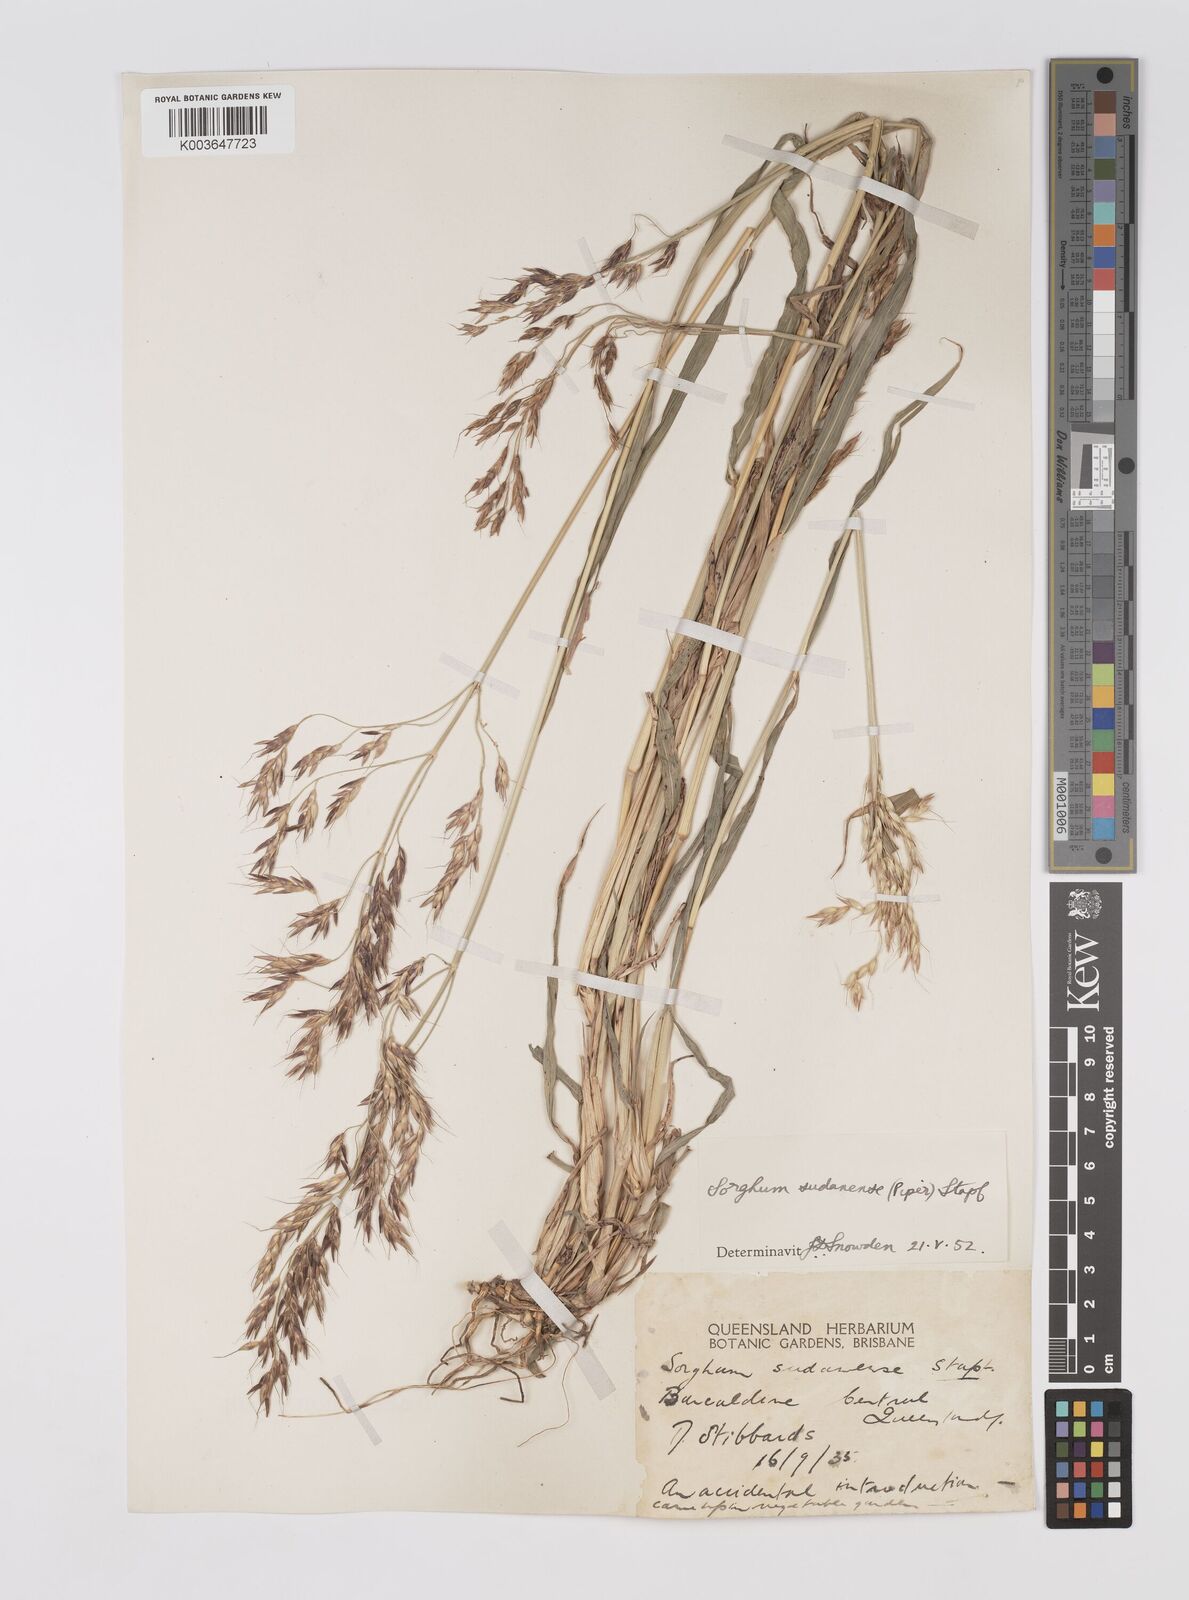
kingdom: Plantae
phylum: Tracheophyta
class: Liliopsida
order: Poales
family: Poaceae
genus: Sorghum
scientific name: Sorghum drummondii
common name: Sudangrass
